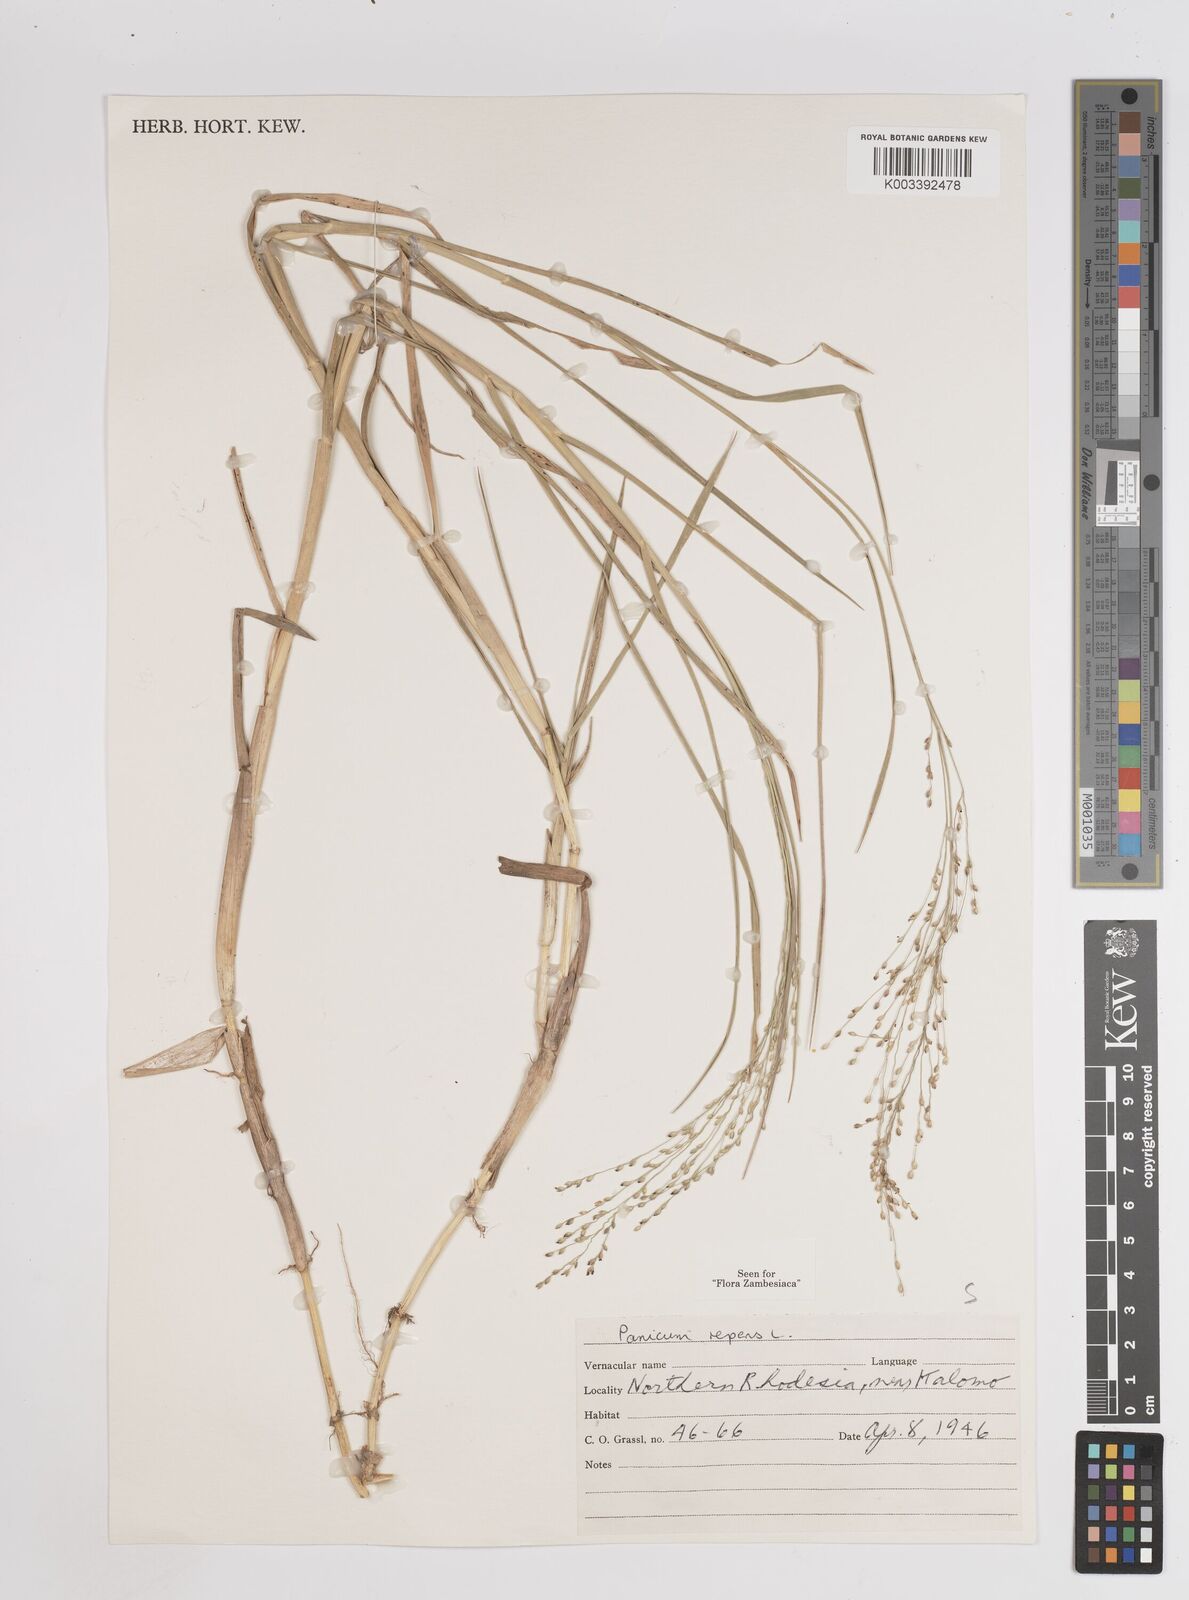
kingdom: Plantae
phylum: Tracheophyta
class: Liliopsida
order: Poales
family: Poaceae
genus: Panicum
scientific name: Panicum repens
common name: Torpedo grass
